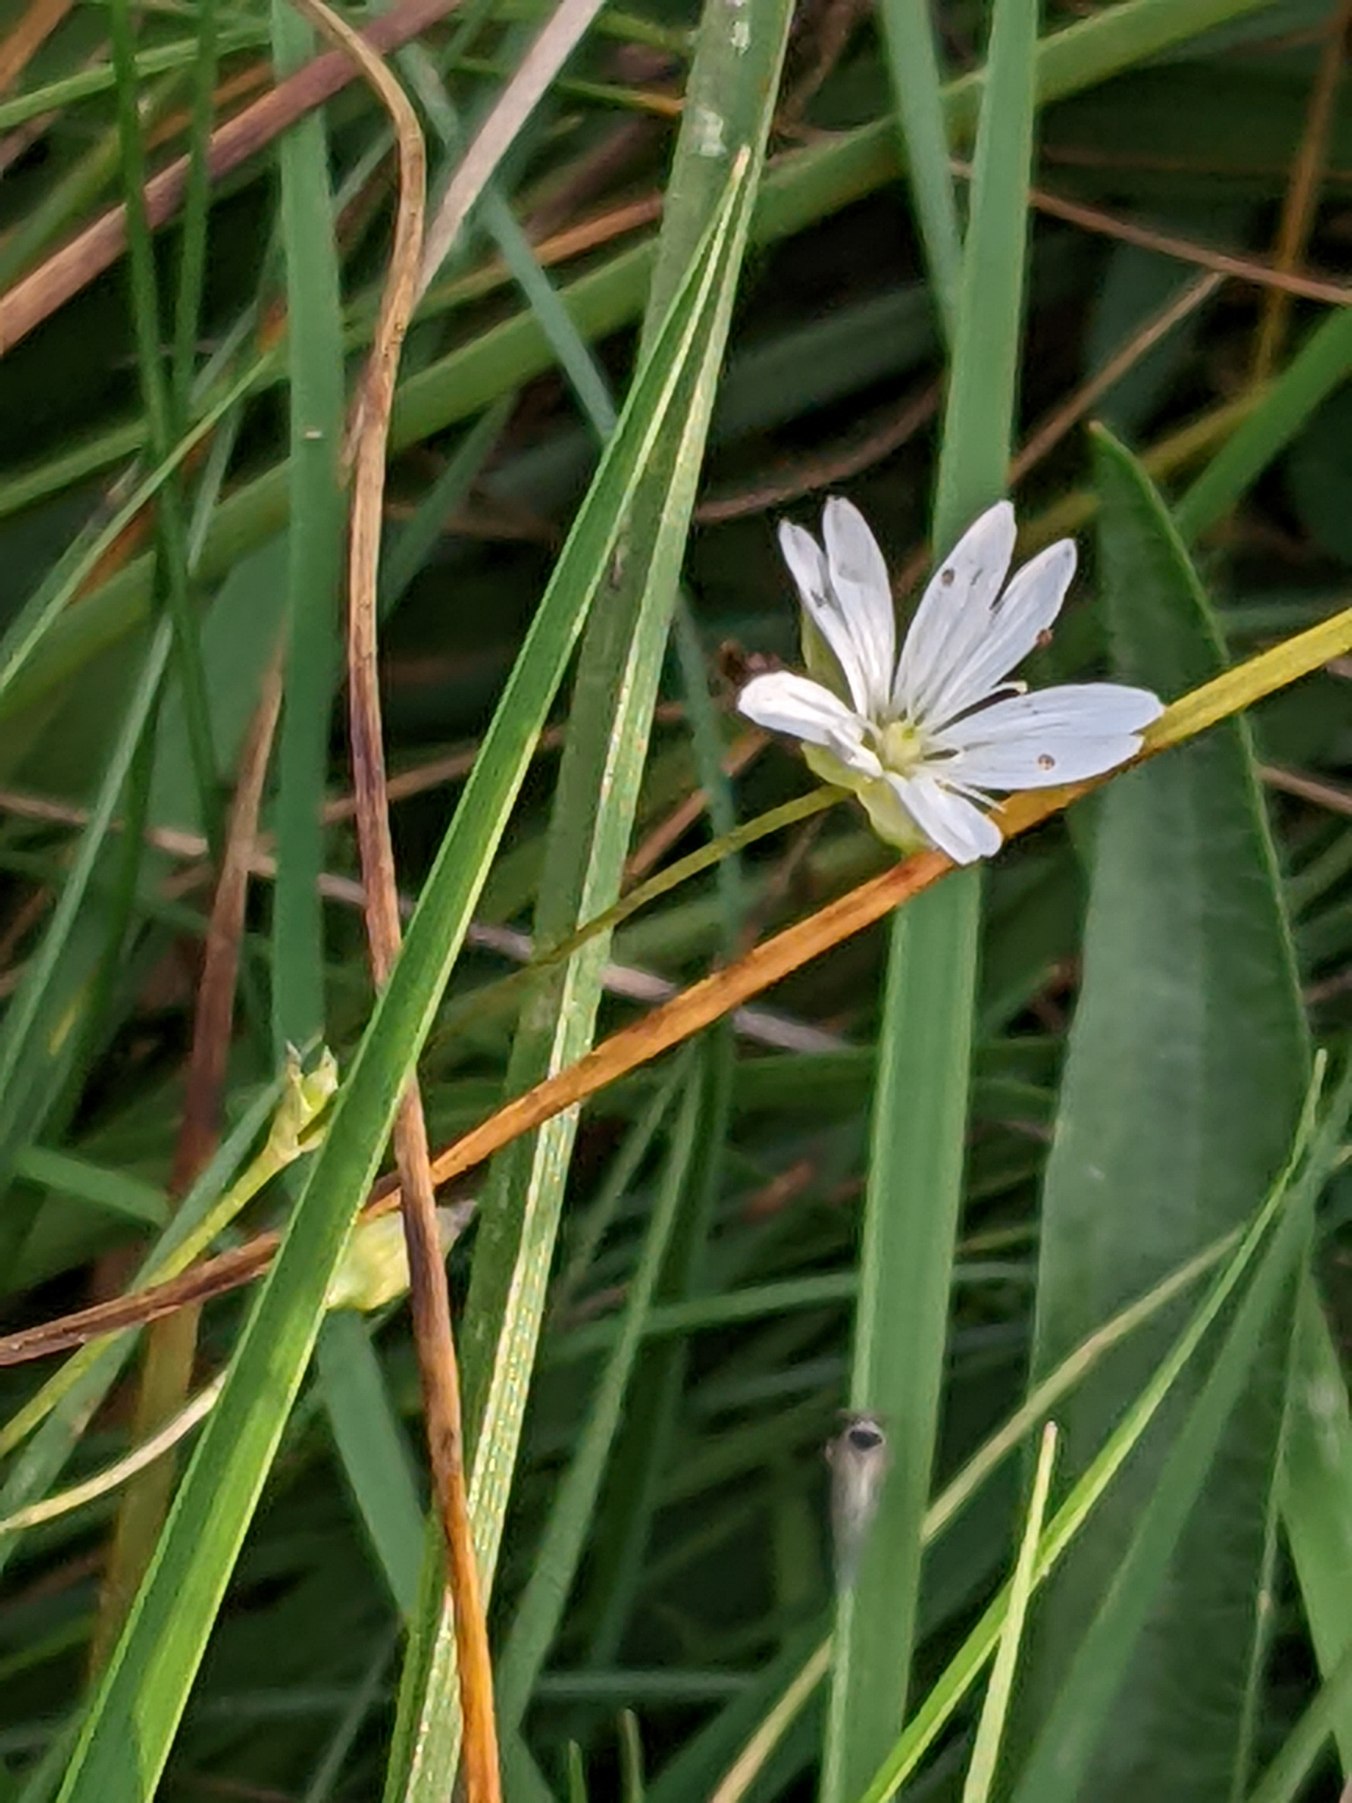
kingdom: Plantae
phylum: Tracheophyta
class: Magnoliopsida
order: Caryophyllales
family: Caryophyllaceae
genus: Stellaria
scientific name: Stellaria graminea
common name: Græsbladet fladstjerne
